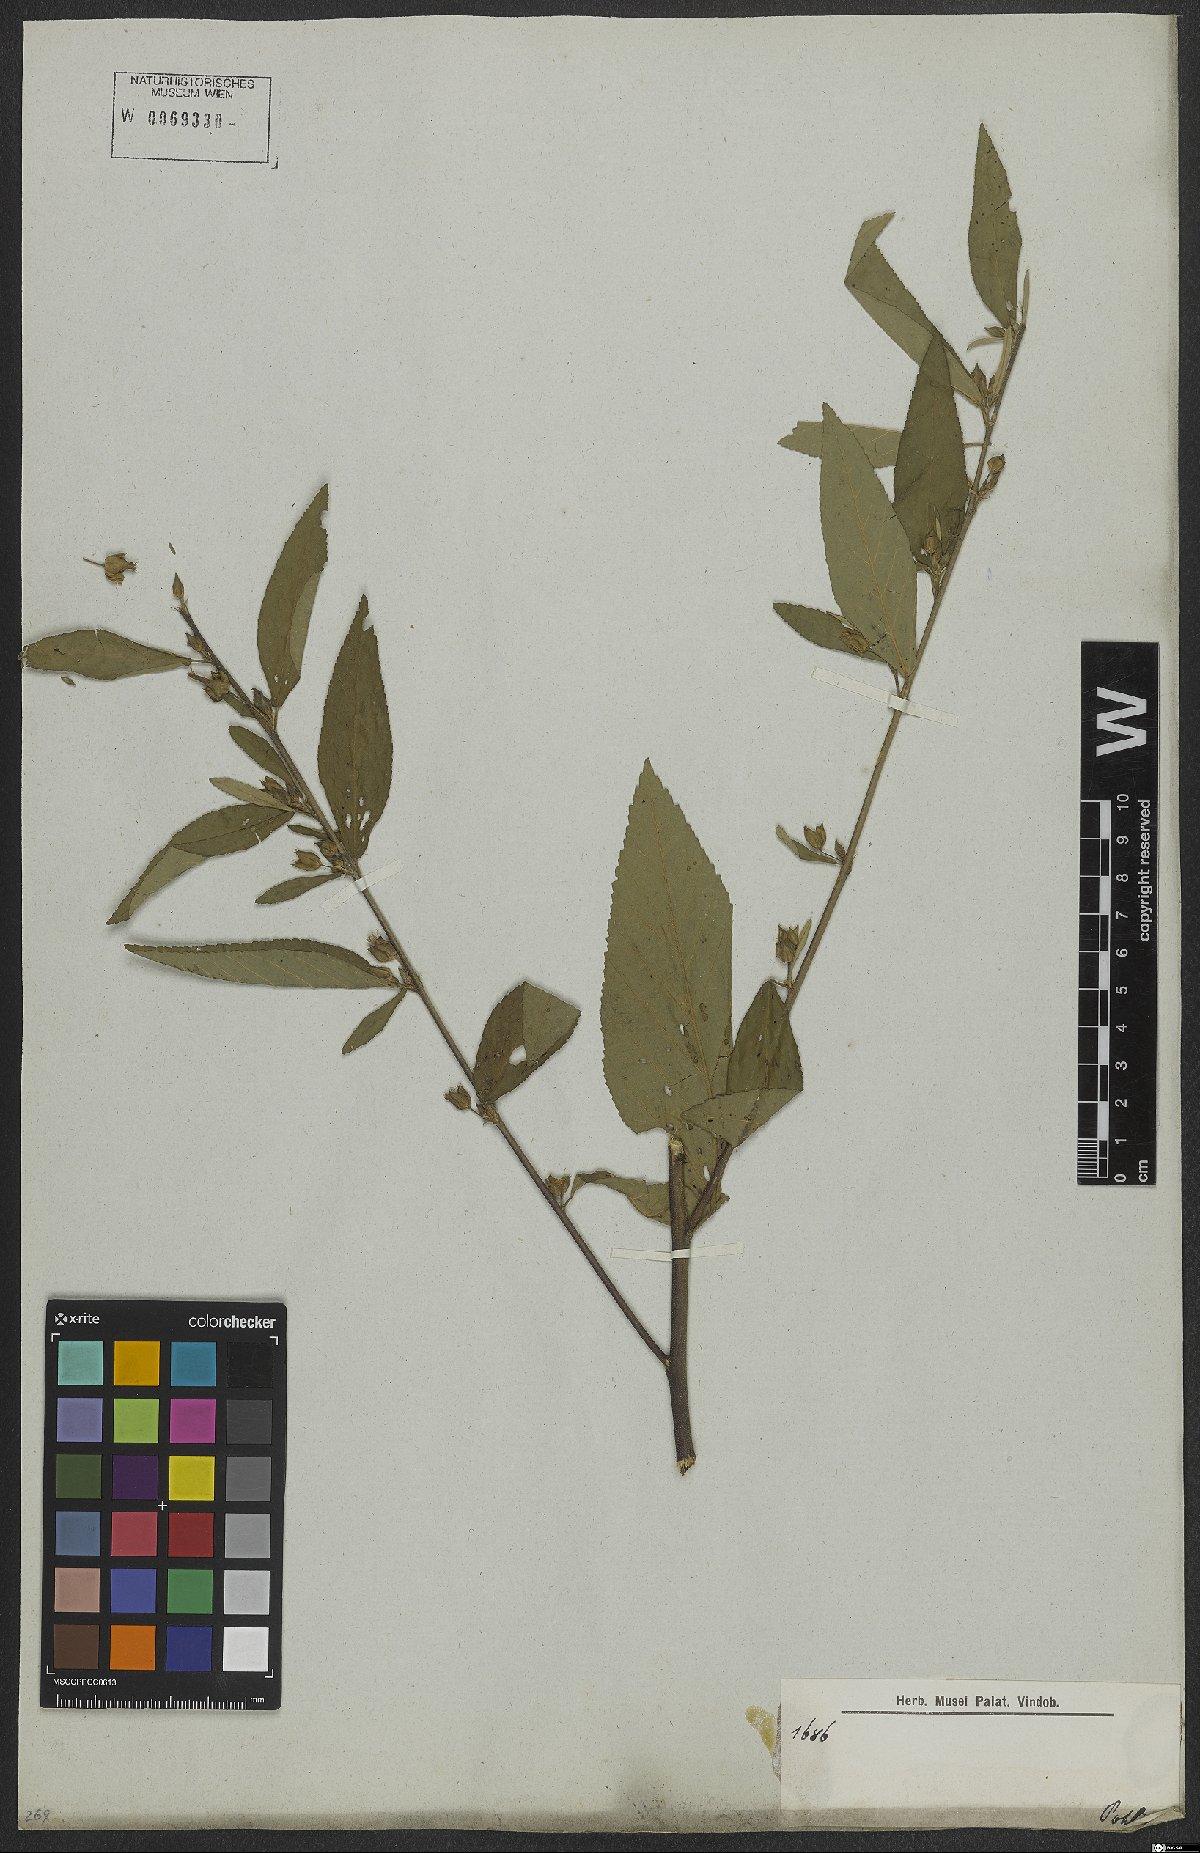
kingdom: Plantae
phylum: Tracheophyta
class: Magnoliopsida
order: Malvales
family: Malvaceae
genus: Sida
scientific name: Sida rhombifolia
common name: Queensland-hemp
